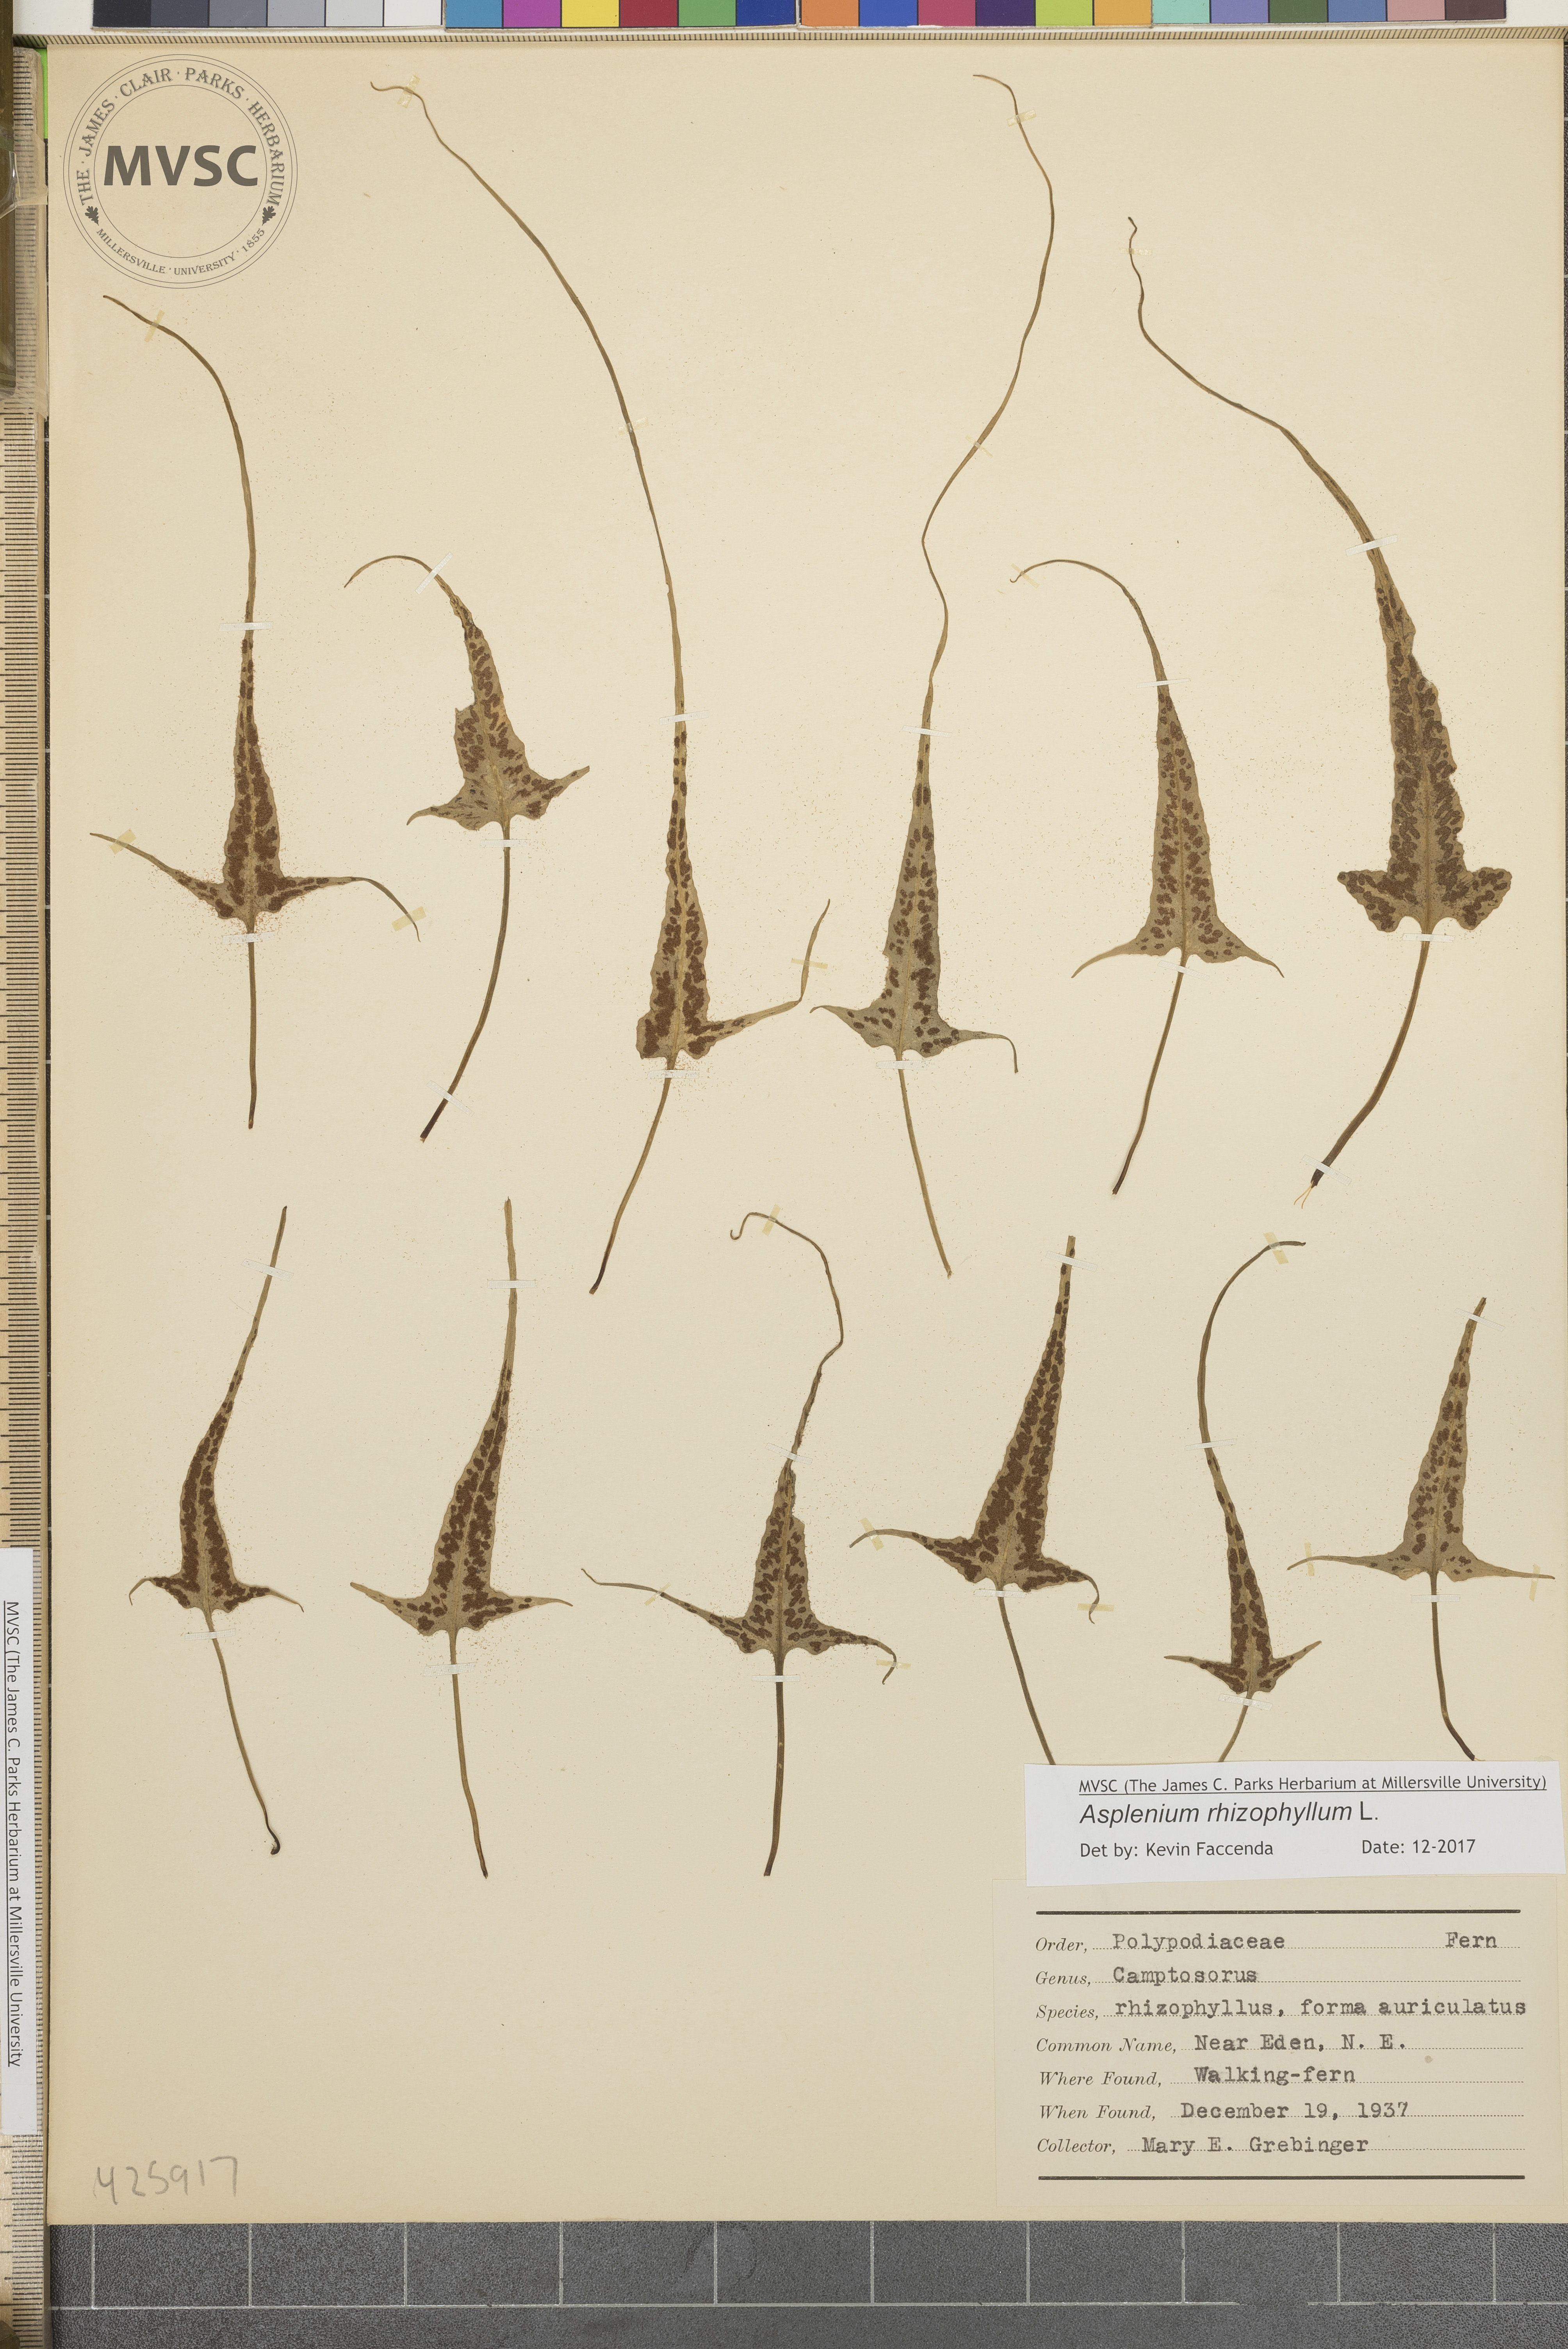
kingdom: Plantae
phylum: Tracheophyta
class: Polypodiopsida
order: Polypodiales
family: Aspleniaceae
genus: Asplenium
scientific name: Asplenium rhizophyllum
